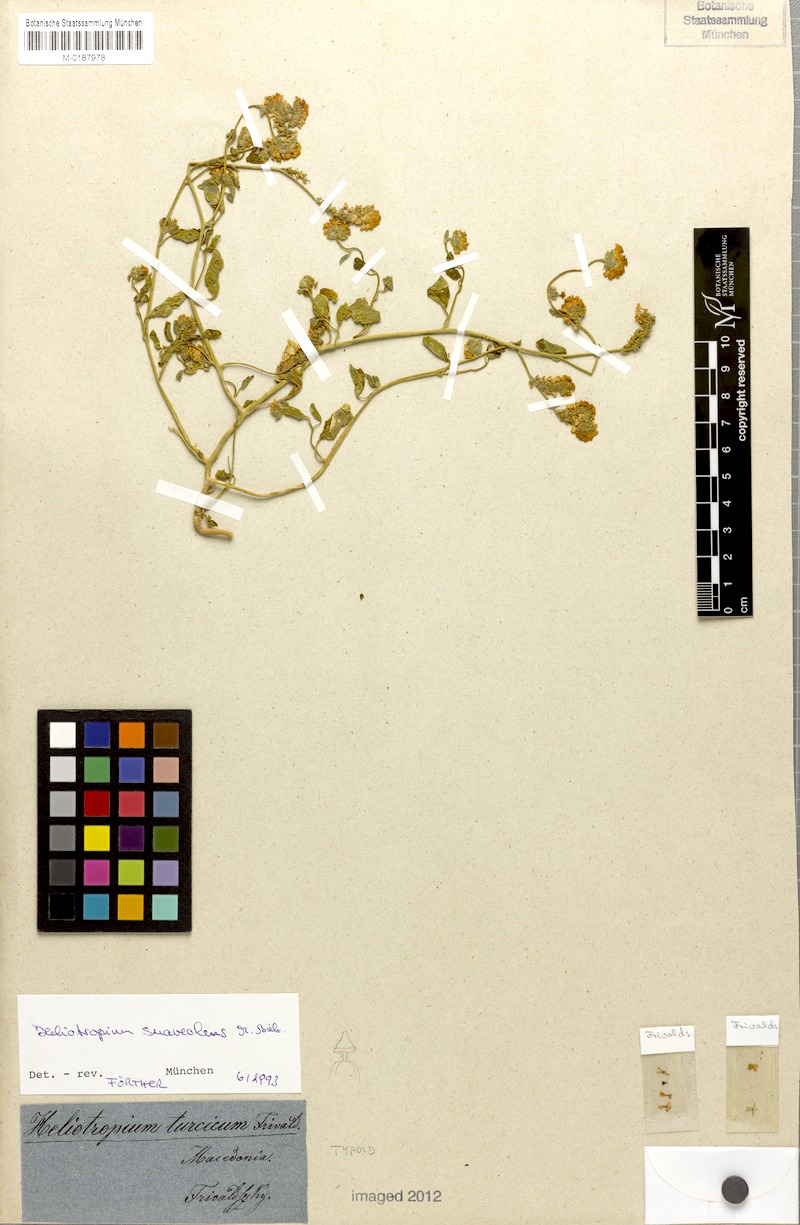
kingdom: Plantae
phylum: Tracheophyta
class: Magnoliopsida
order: Boraginales
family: Heliotropiaceae
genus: Heliotropium
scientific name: Heliotropium suaveolens
